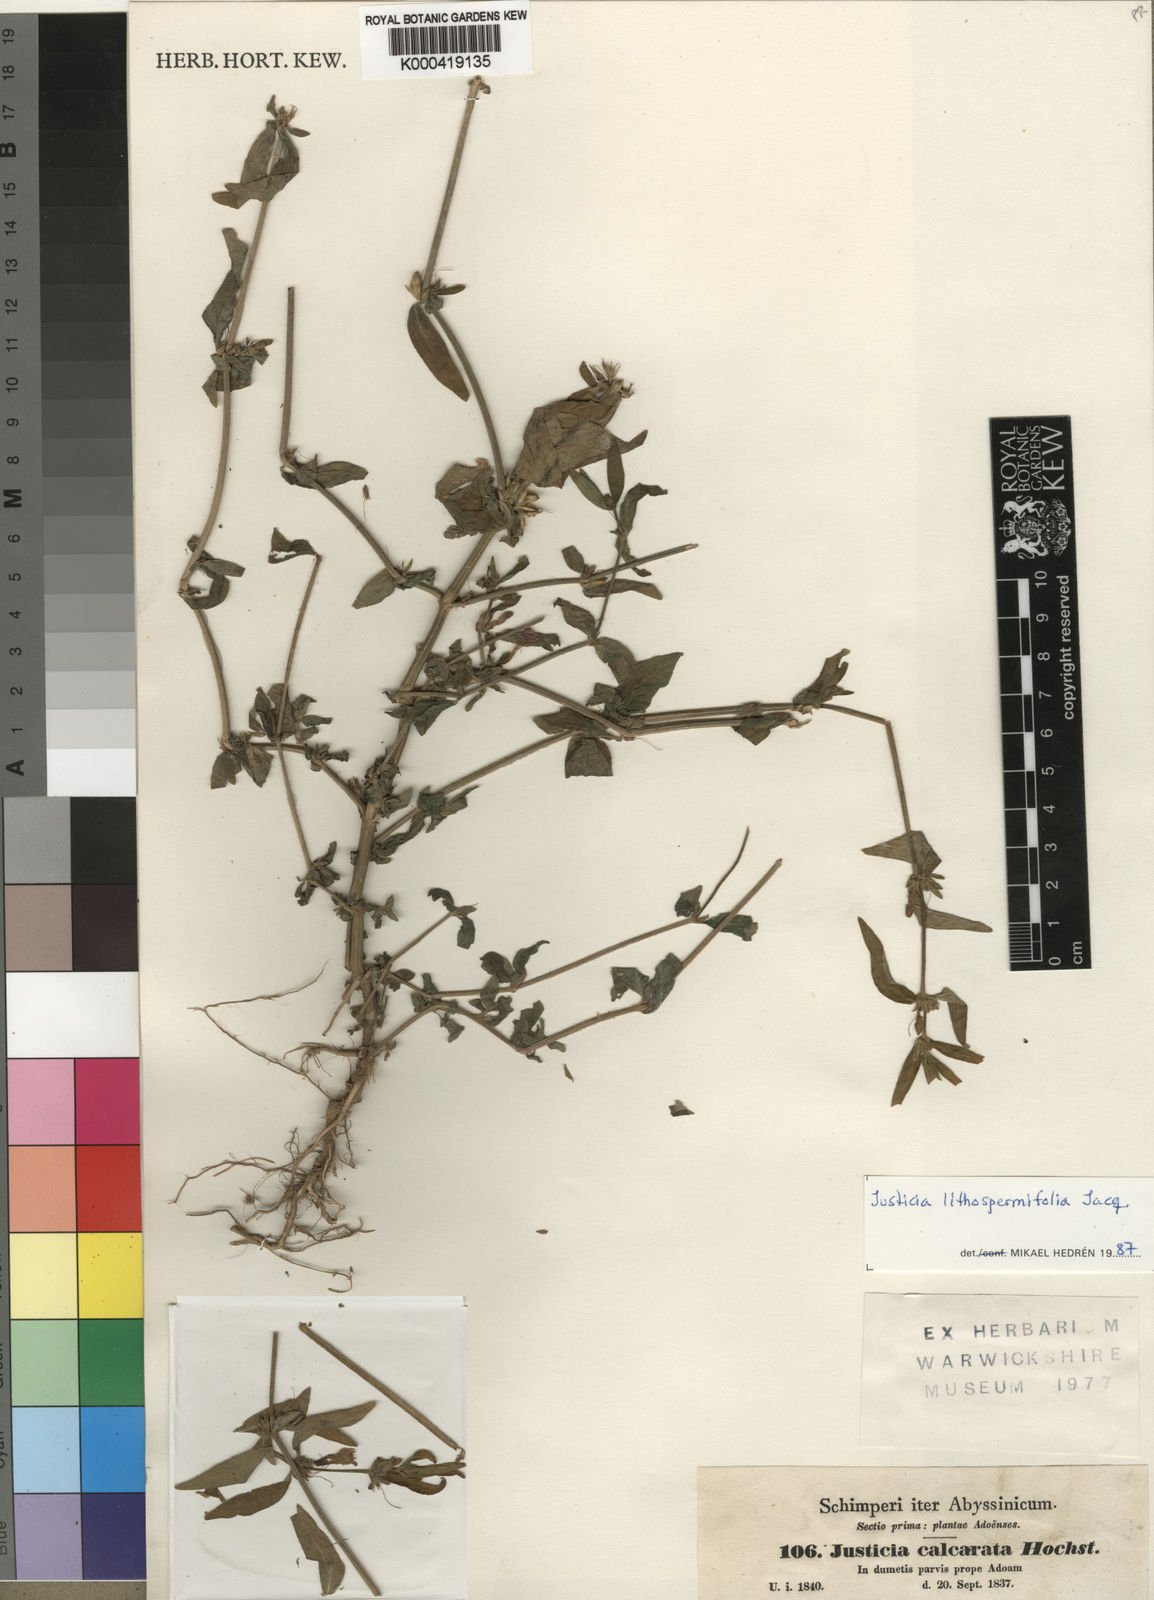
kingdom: Plantae
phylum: Tracheophyta
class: Magnoliopsida
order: Lamiales
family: Acanthaceae
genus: Justicia
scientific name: Justicia ladanoides
